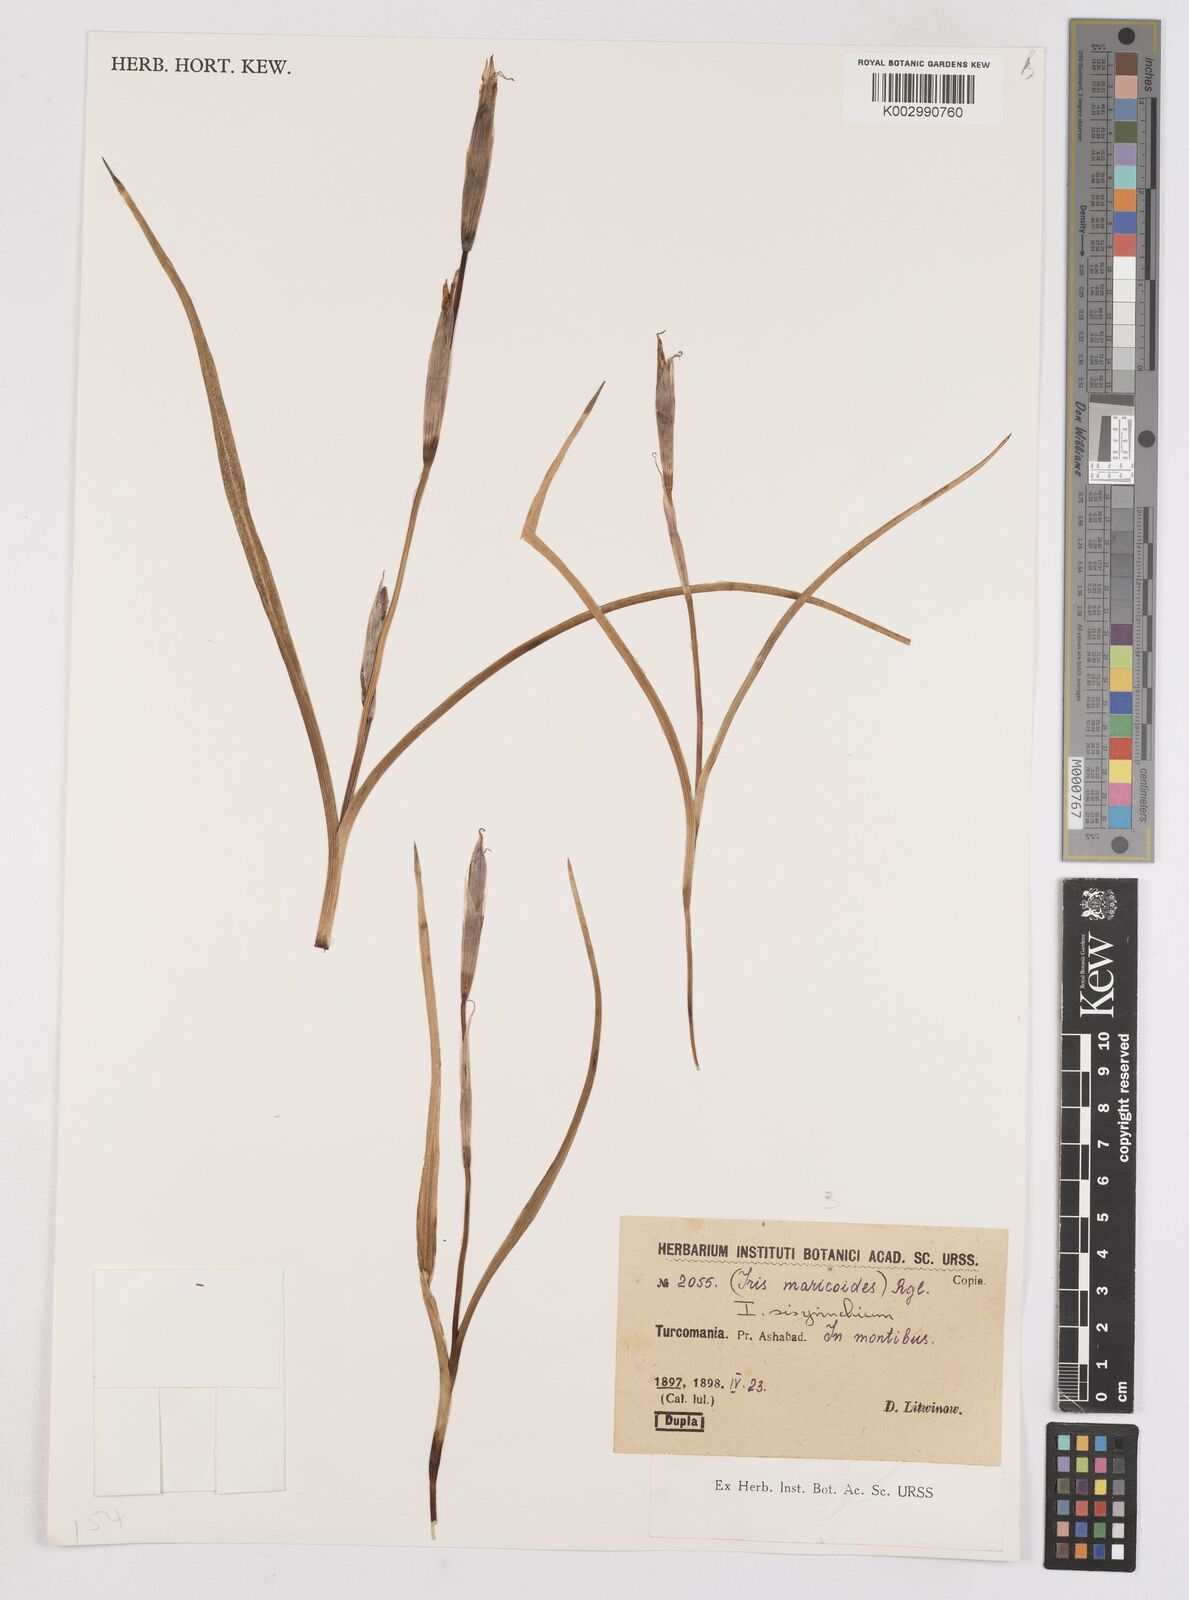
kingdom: Plantae
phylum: Tracheophyta
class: Liliopsida
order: Asparagales
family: Iridaceae
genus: Moraea
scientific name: Moraea sisyrinchium
